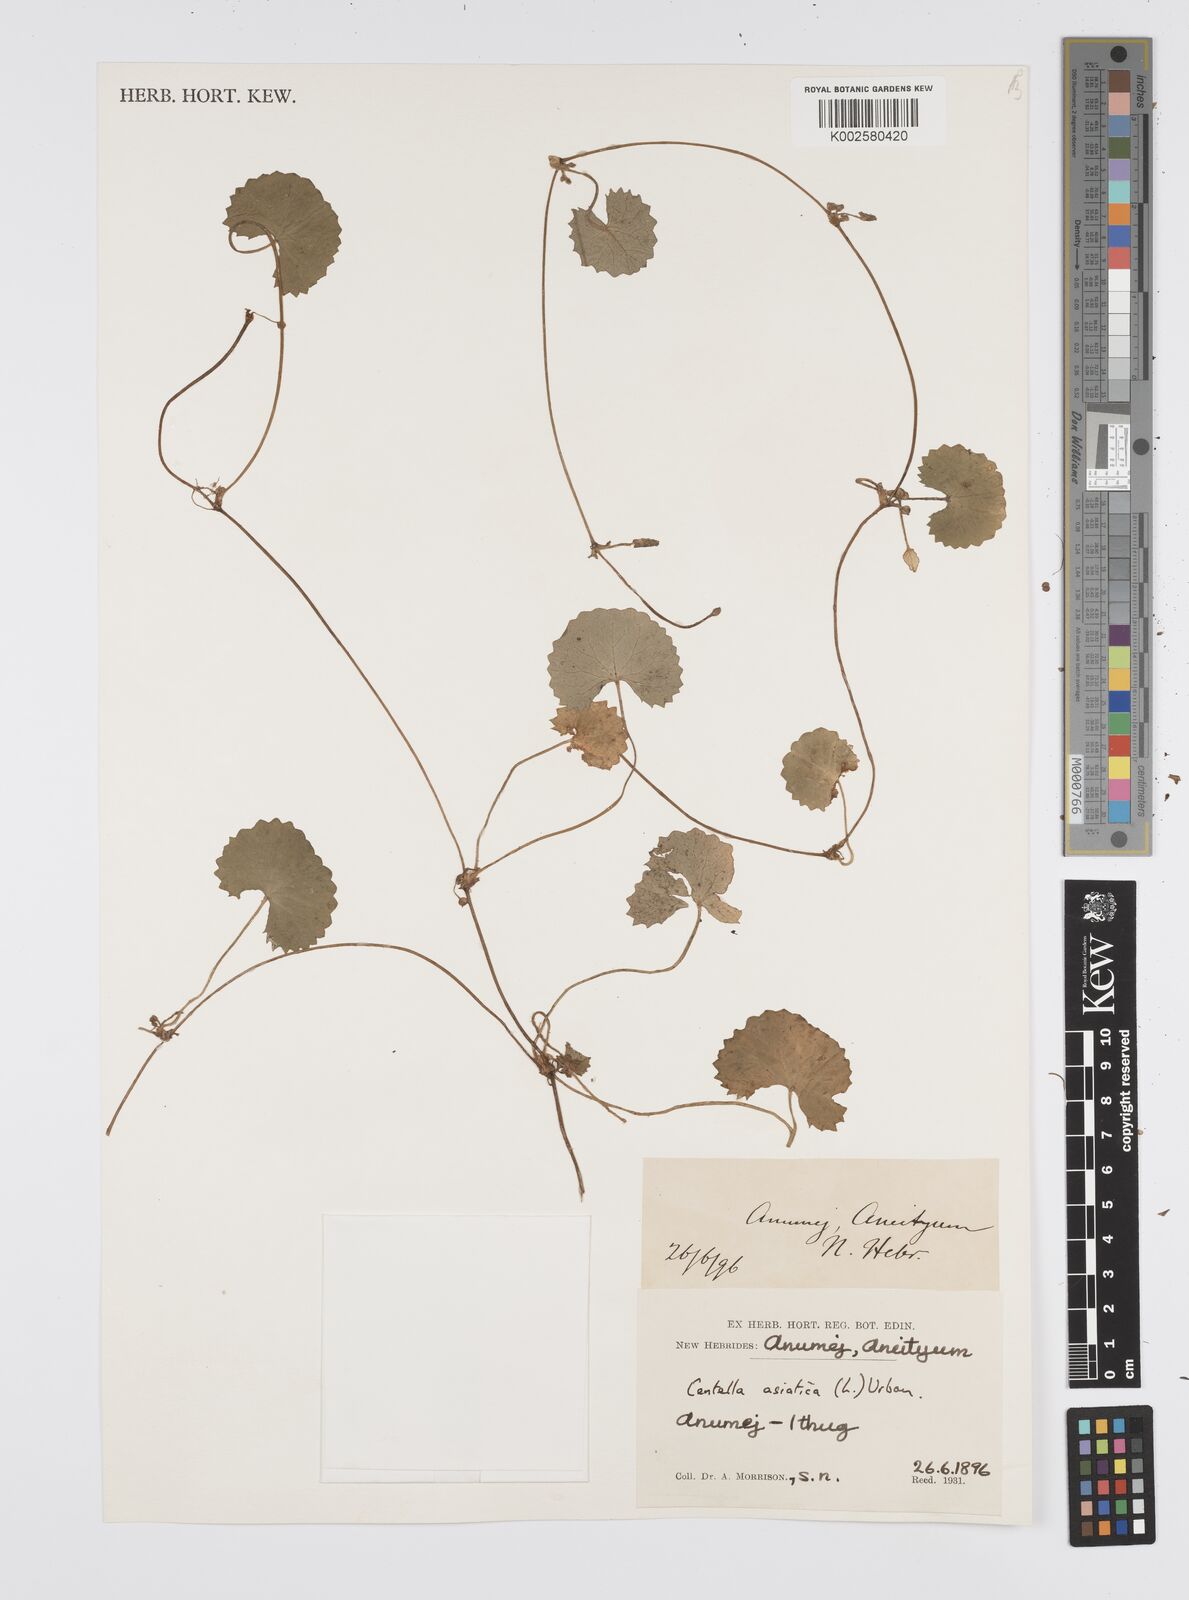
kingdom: Plantae
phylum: Tracheophyta
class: Magnoliopsida
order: Apiales
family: Apiaceae
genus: Centella
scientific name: Centella asiatica
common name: Spadeleaf
